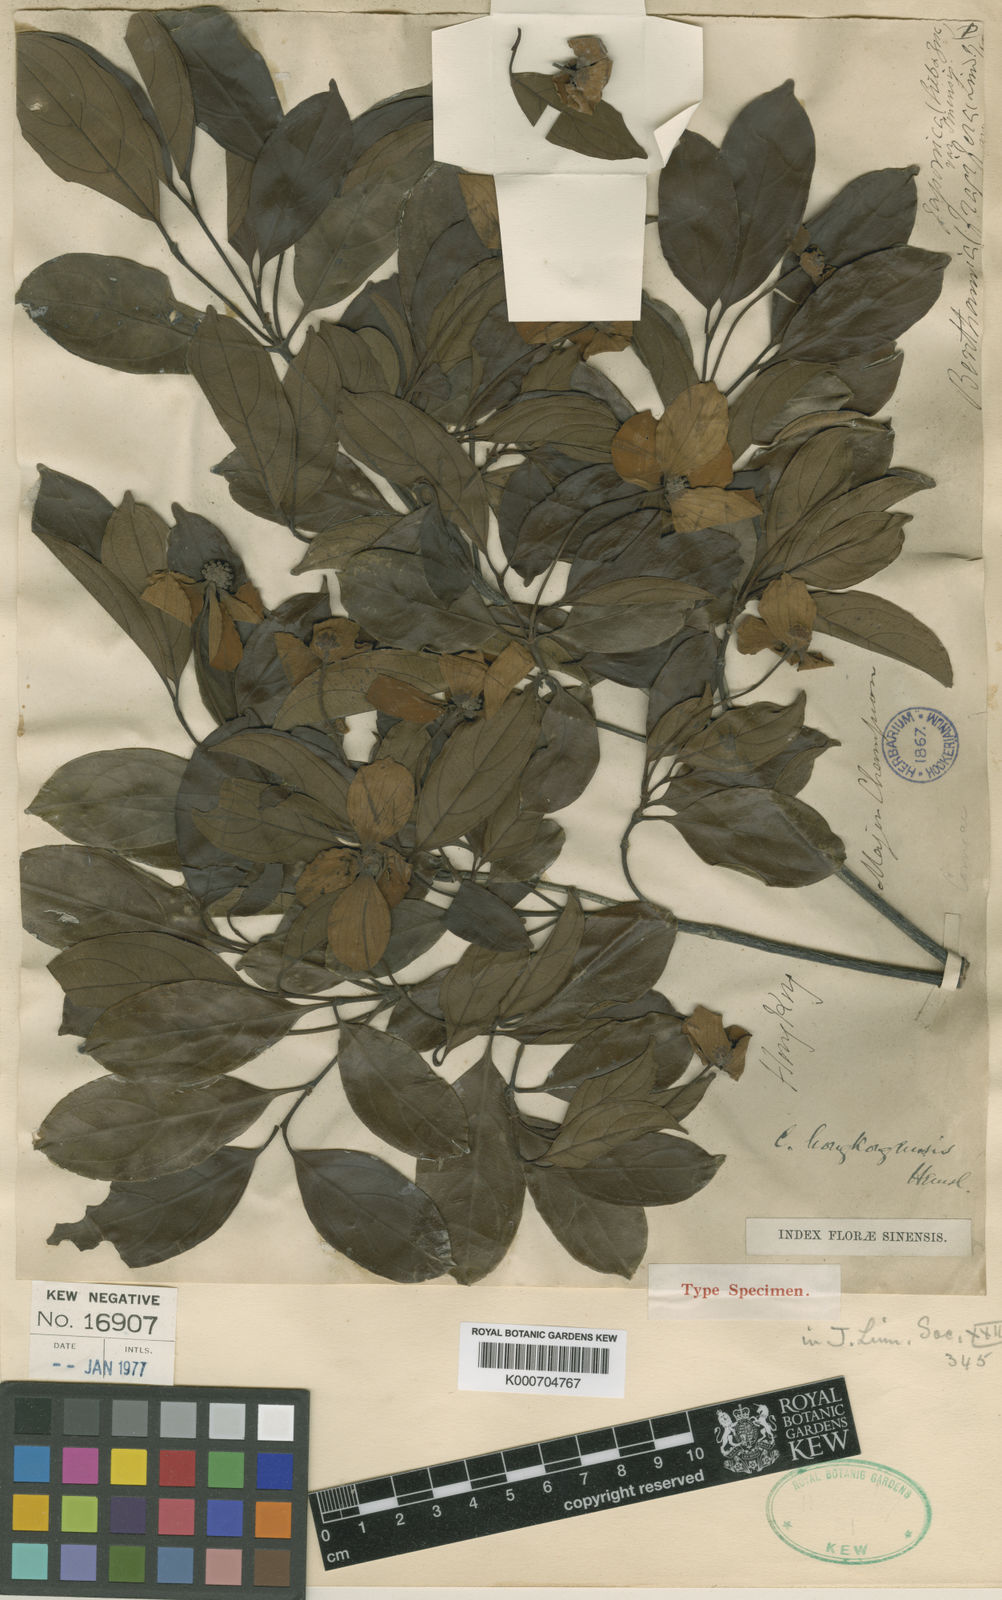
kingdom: Plantae
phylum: Tracheophyta
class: Magnoliopsida
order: Cornales
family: Cornaceae
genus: Cornus
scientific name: Cornus hongkongensis
